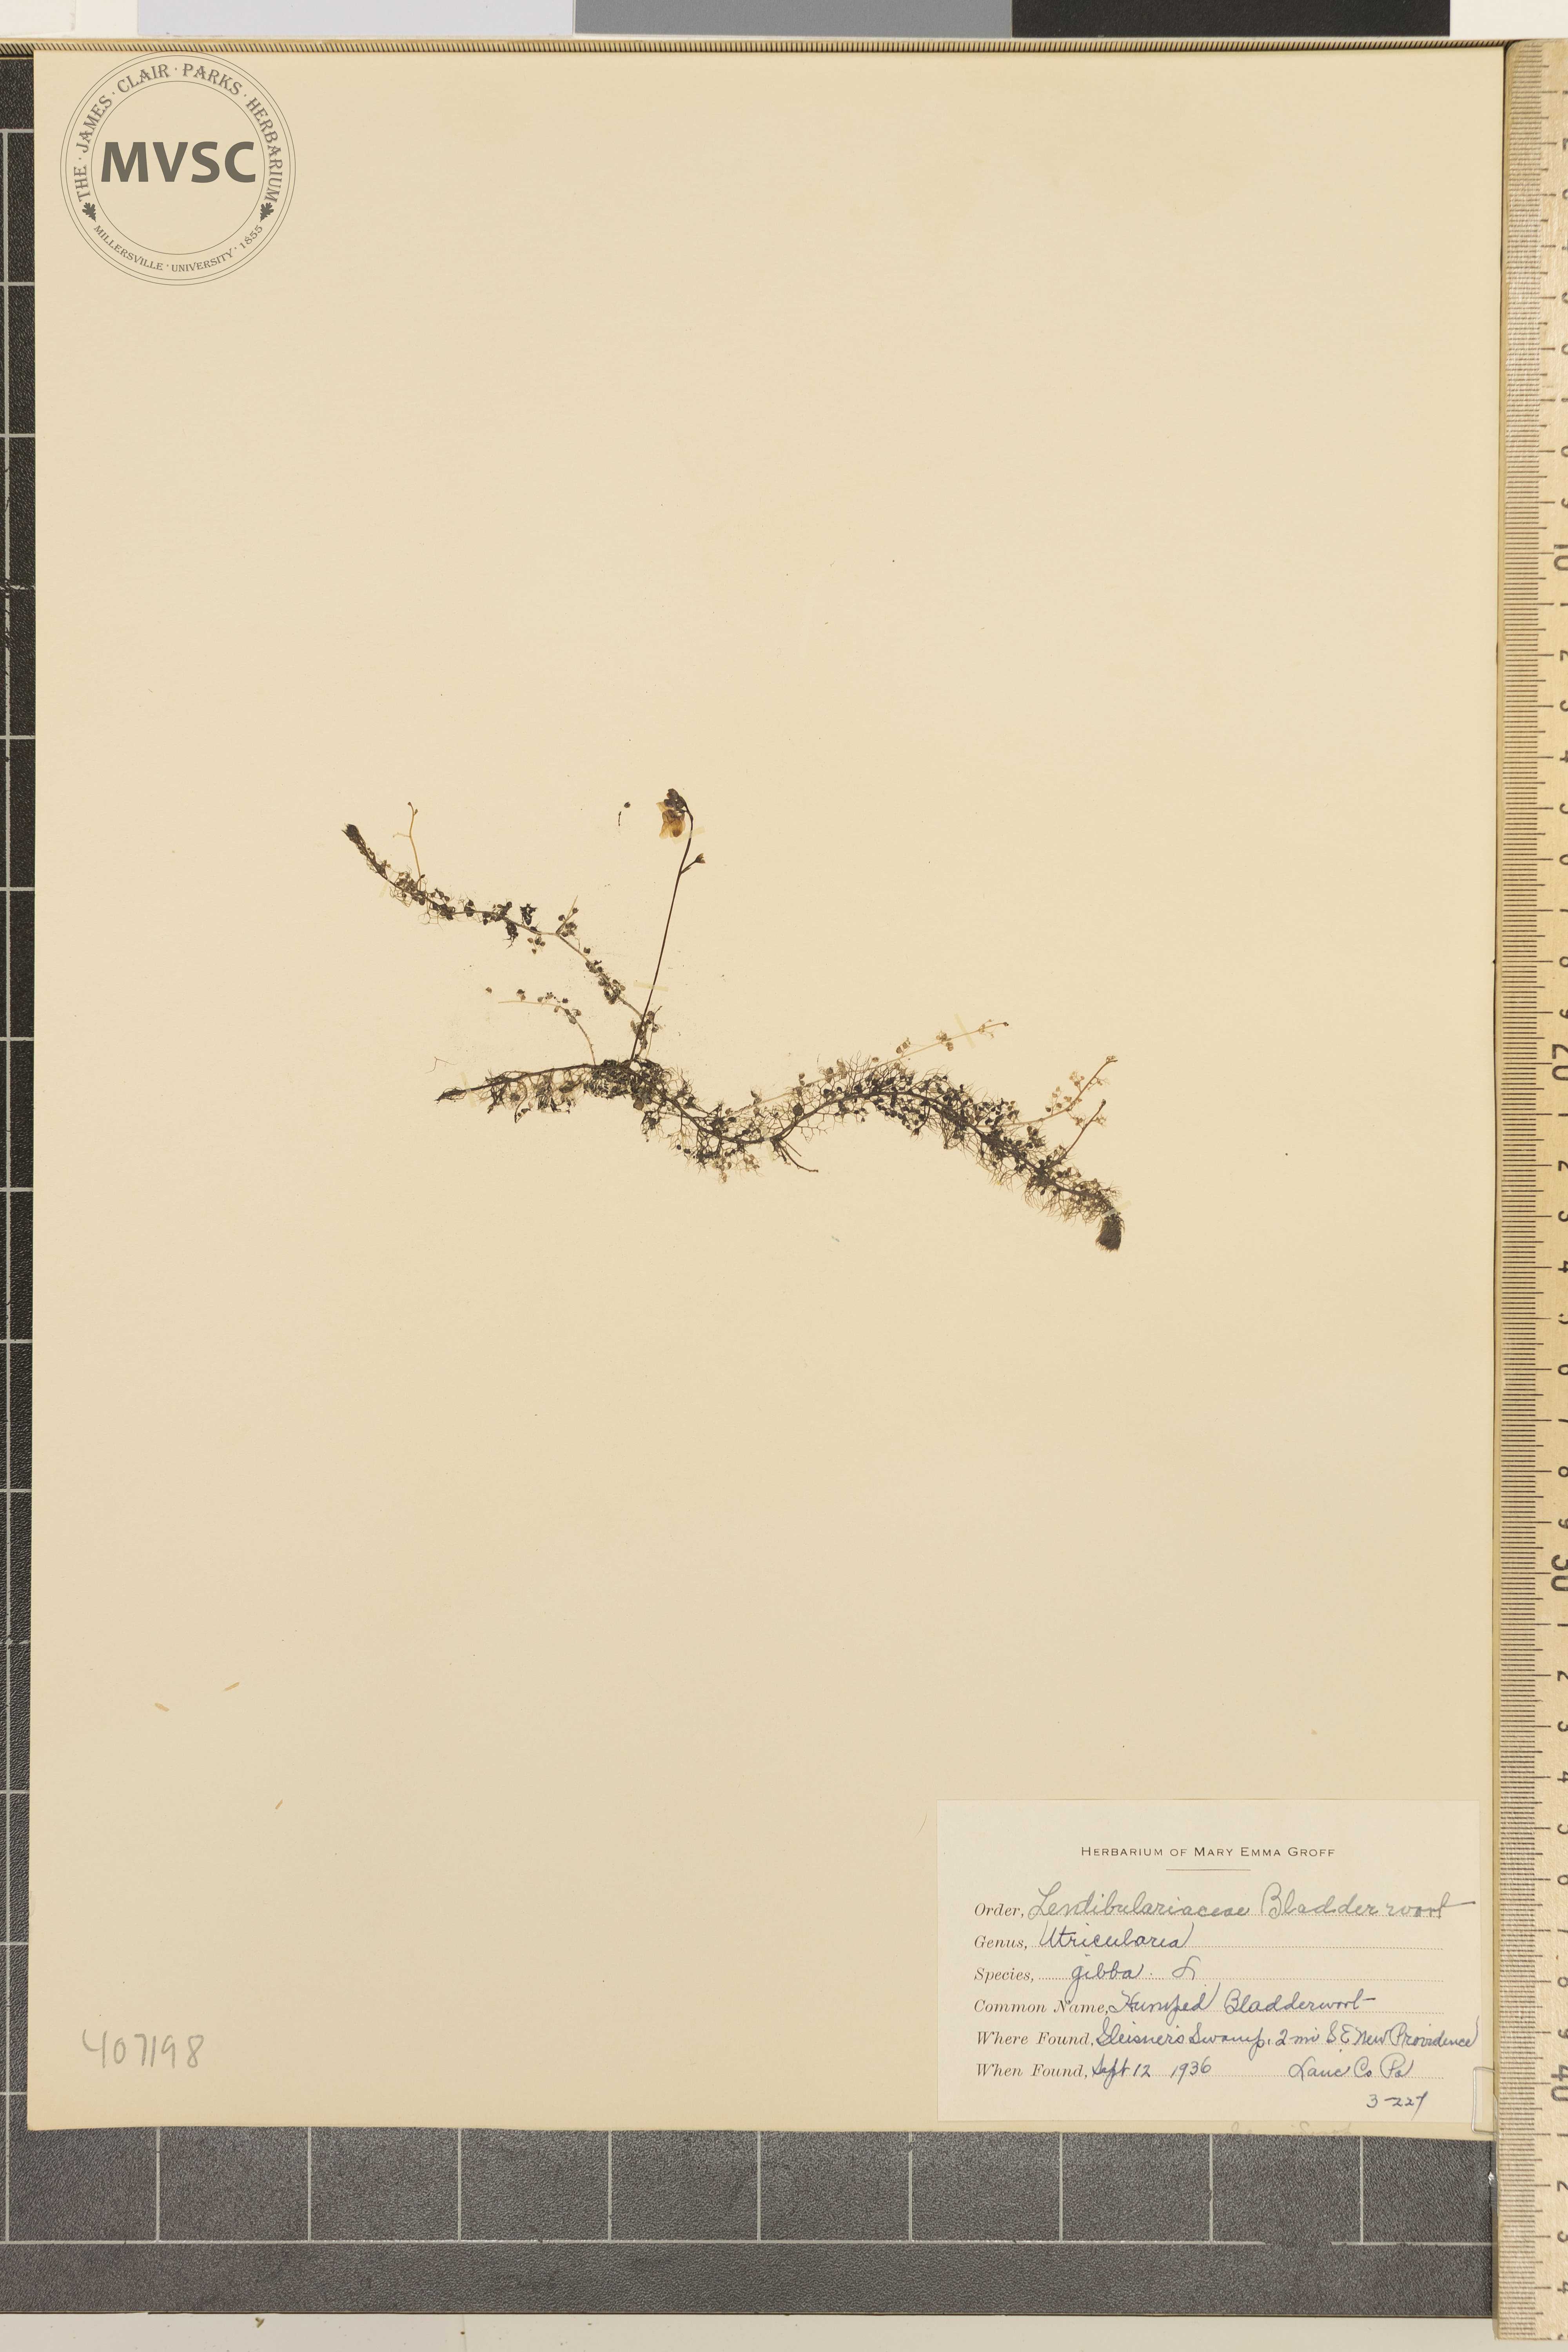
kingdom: Plantae
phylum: Tracheophyta
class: Magnoliopsida
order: Lamiales
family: Lentibulariaceae
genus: Utricularia
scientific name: Utricularia gibba
